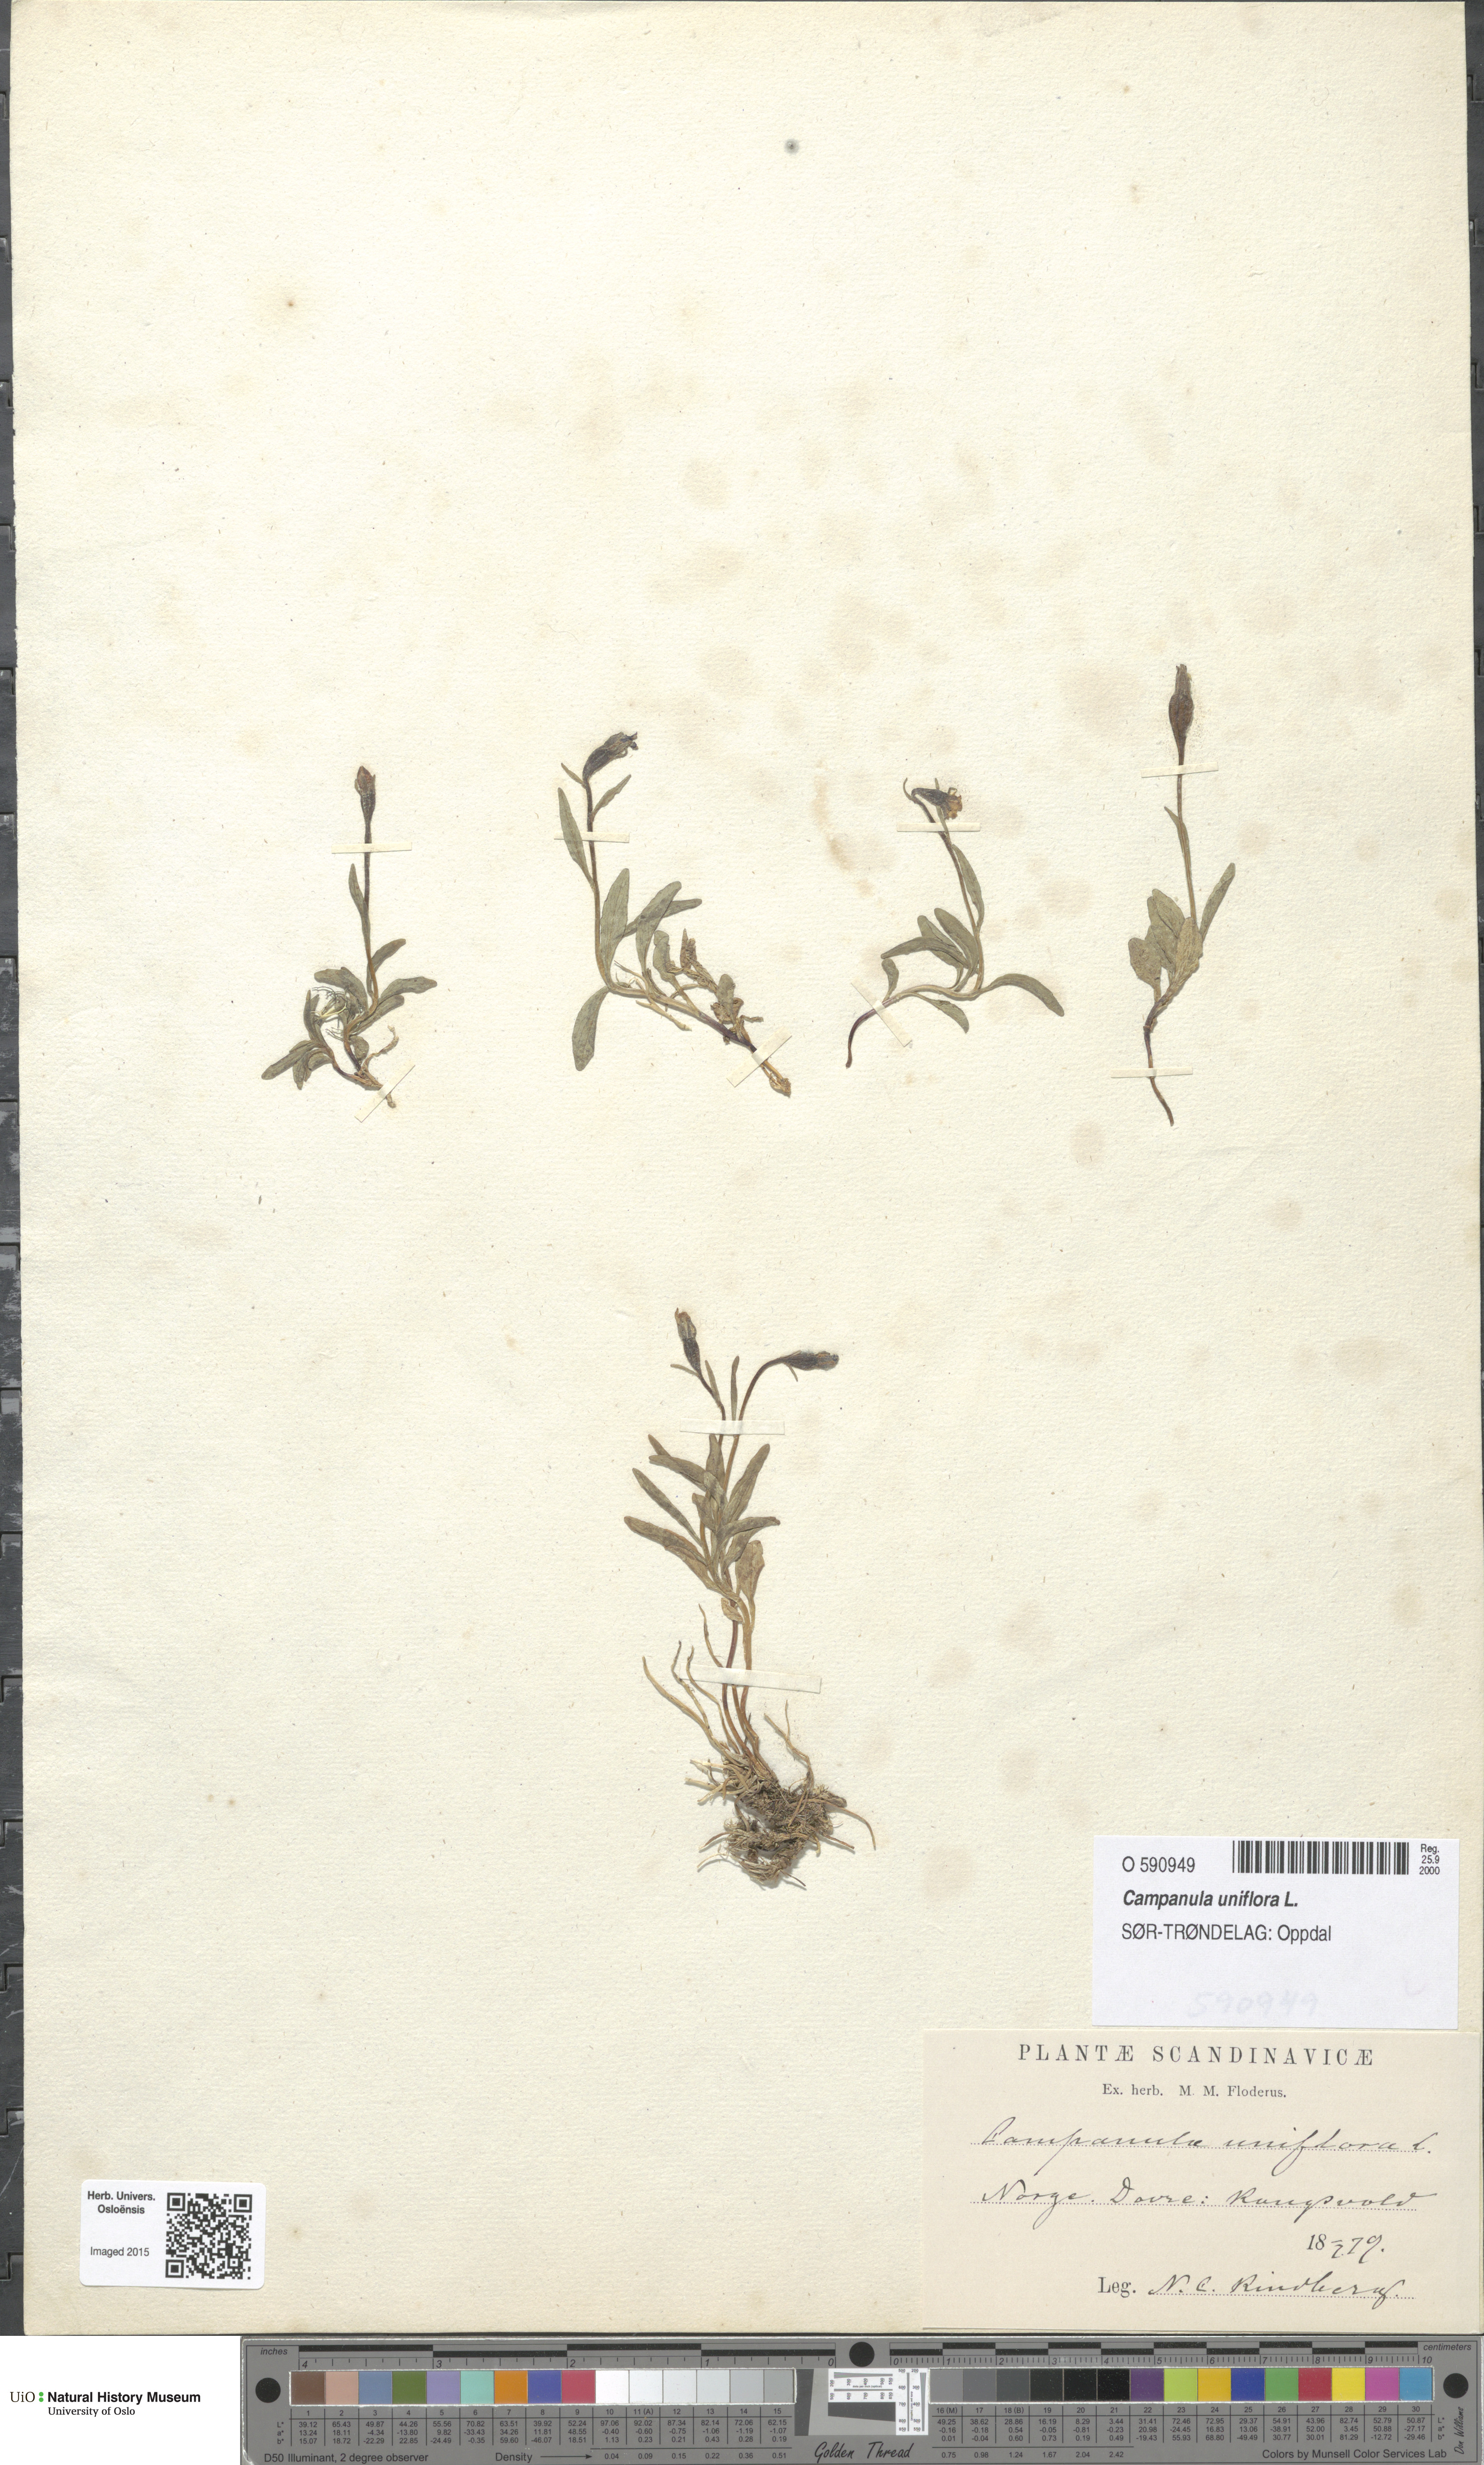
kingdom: Plantae
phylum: Tracheophyta
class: Magnoliopsida
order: Asterales
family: Campanulaceae
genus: Melanocalyx
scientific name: Melanocalyx uniflora
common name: Alpine harebell
